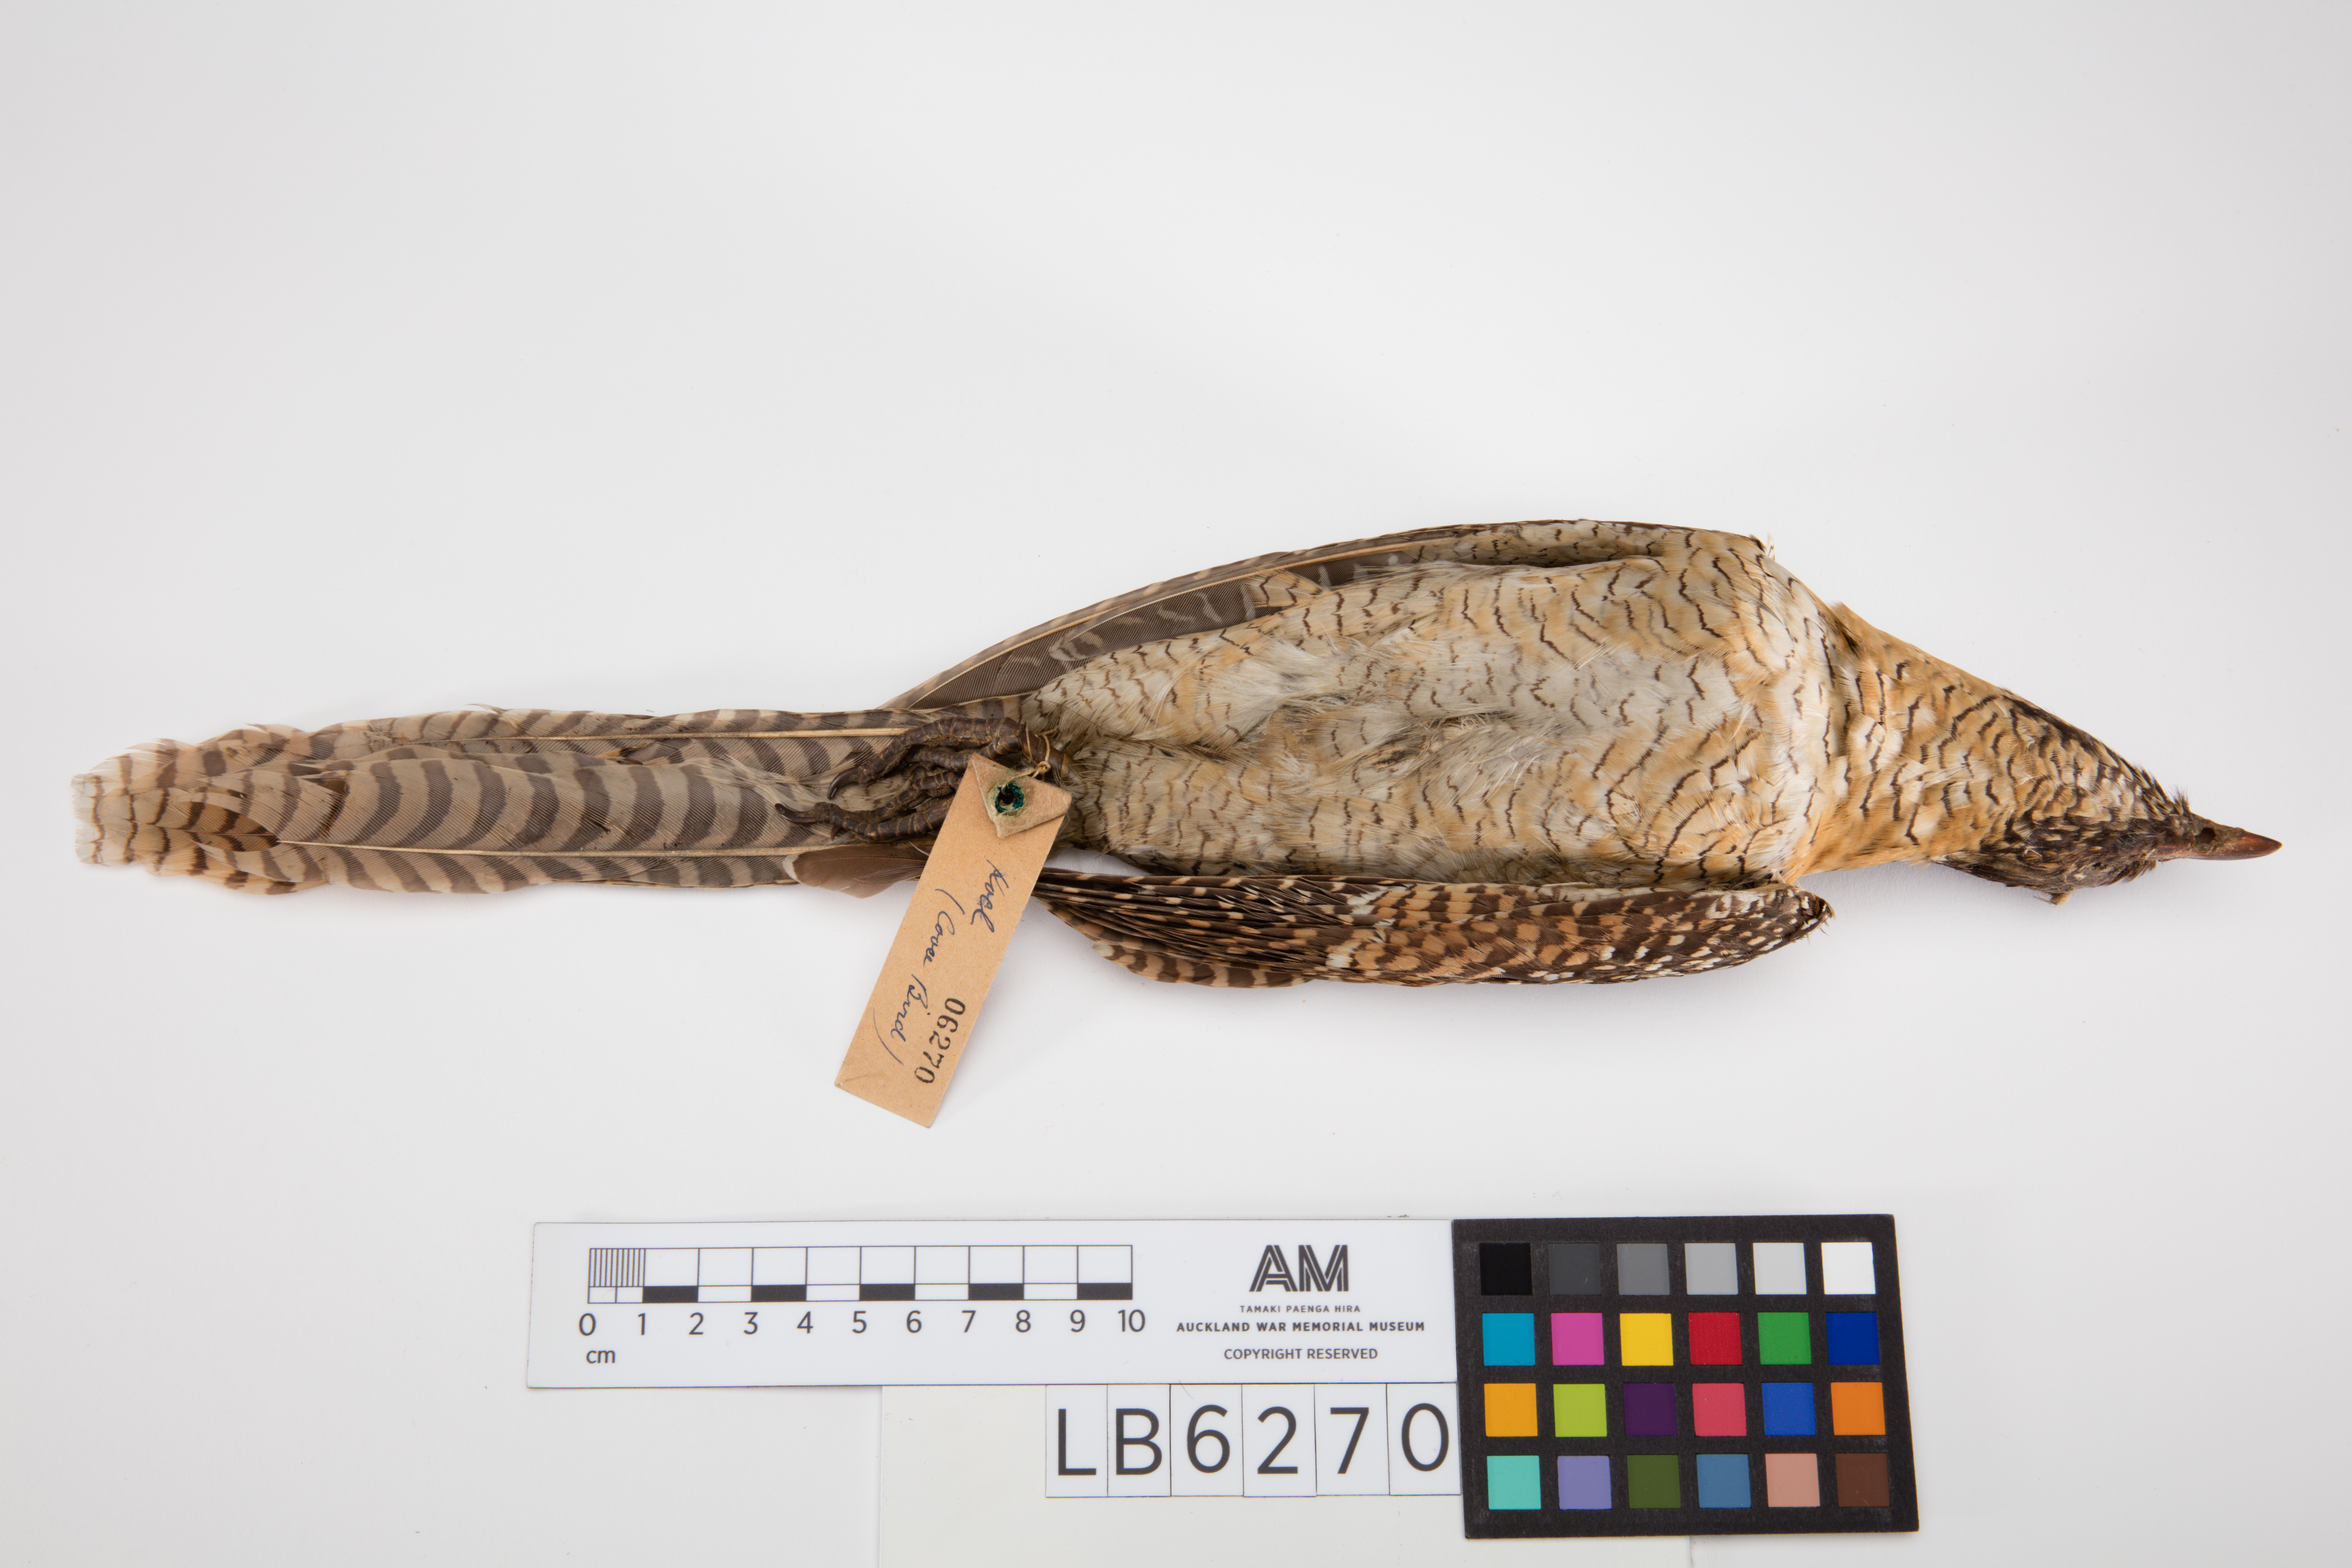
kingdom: Animalia
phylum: Chordata
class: Aves
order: Cuculiformes
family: Cuculidae
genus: Eudynamys
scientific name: Eudynamys scolopaceus
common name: Asian koel
